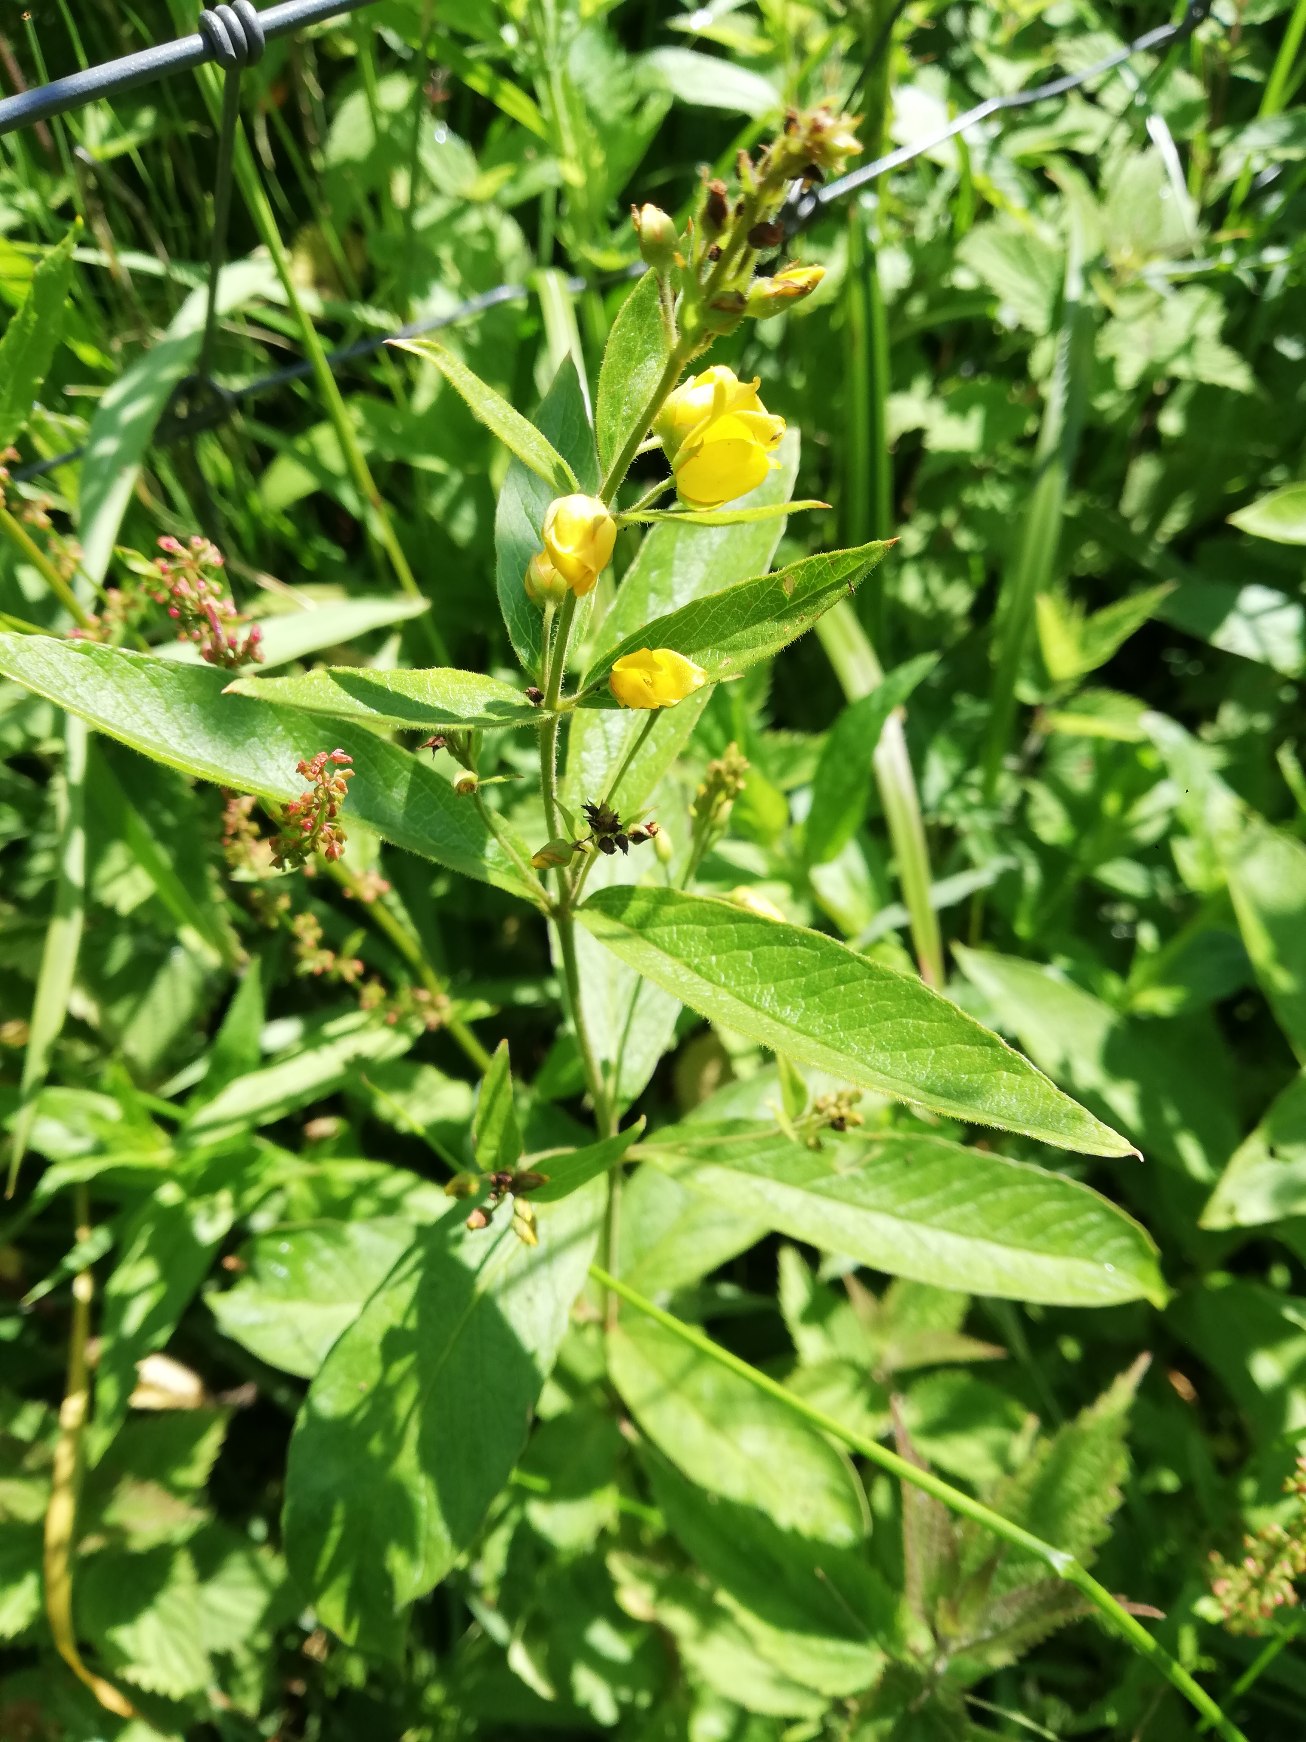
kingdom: Plantae
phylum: Tracheophyta
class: Magnoliopsida
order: Ericales
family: Primulaceae
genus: Lysimachia
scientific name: Lysimachia vulgaris
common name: Almindelig fredløs
